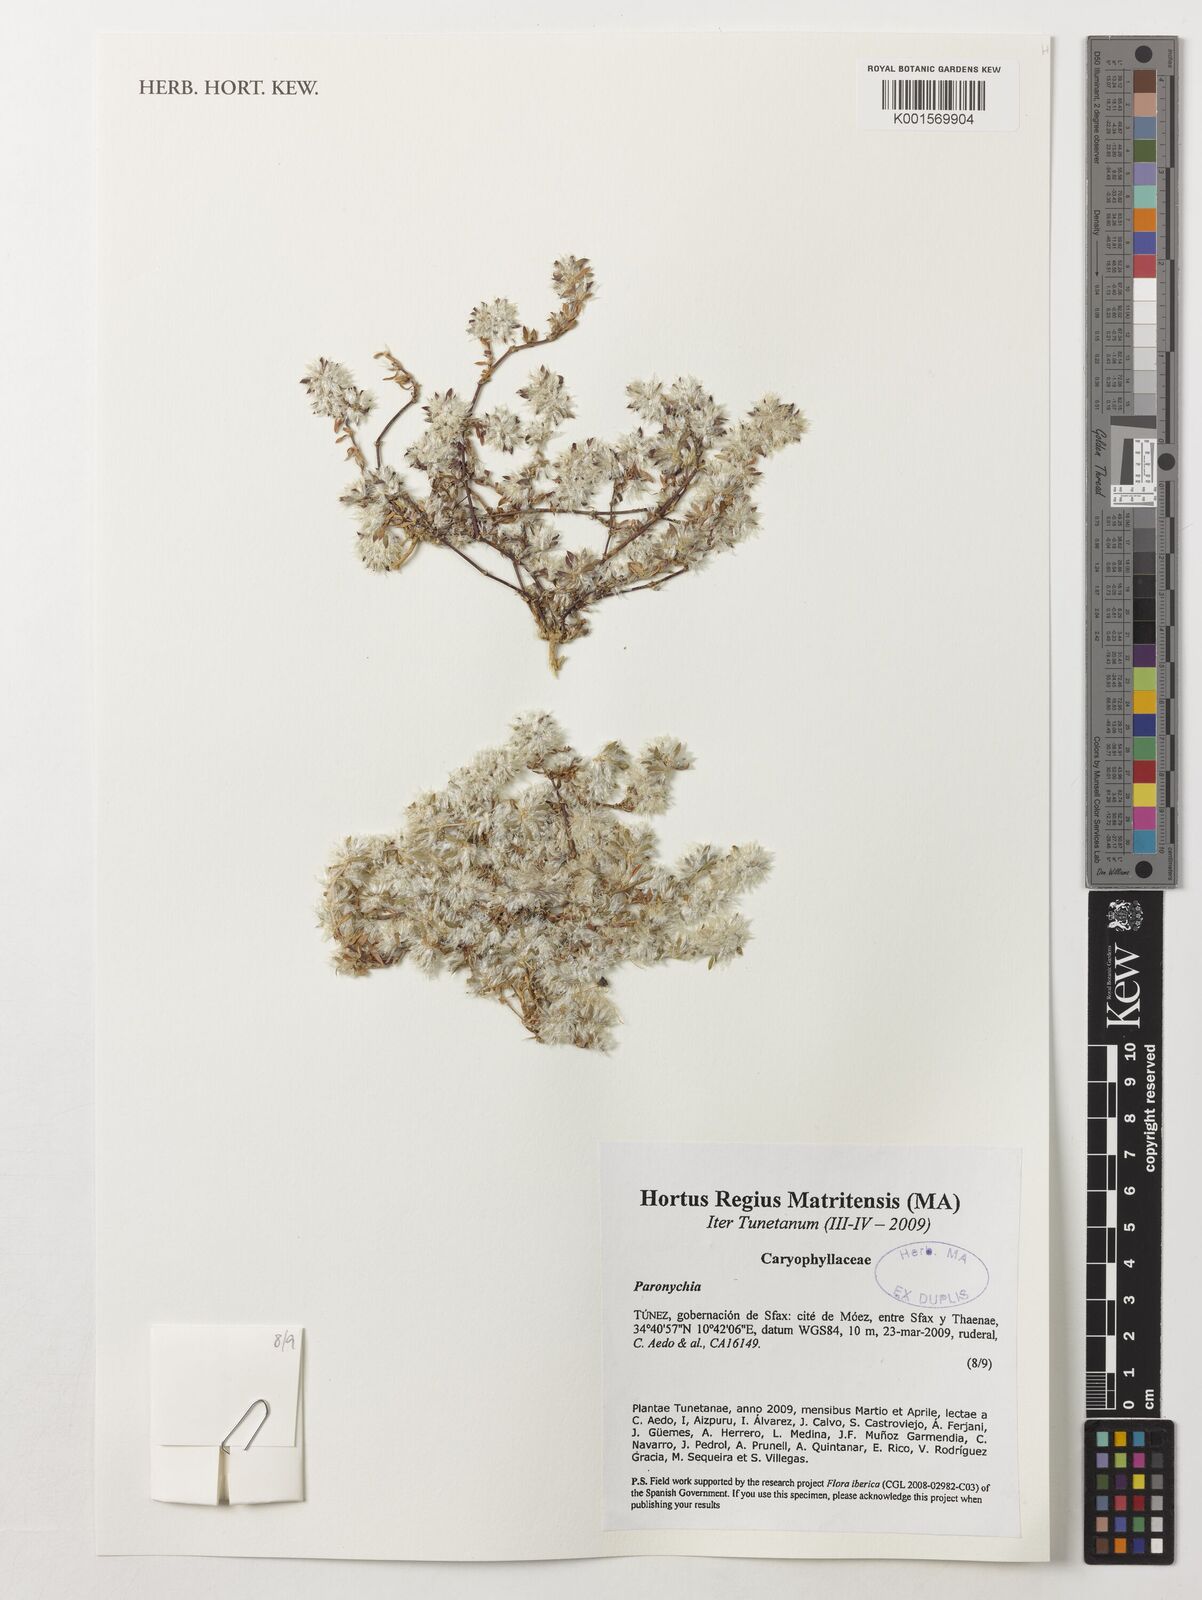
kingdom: Plantae
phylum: Tracheophyta
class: Magnoliopsida
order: Caryophyllales
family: Caryophyllaceae
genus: Paronychia
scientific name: Paronychia
